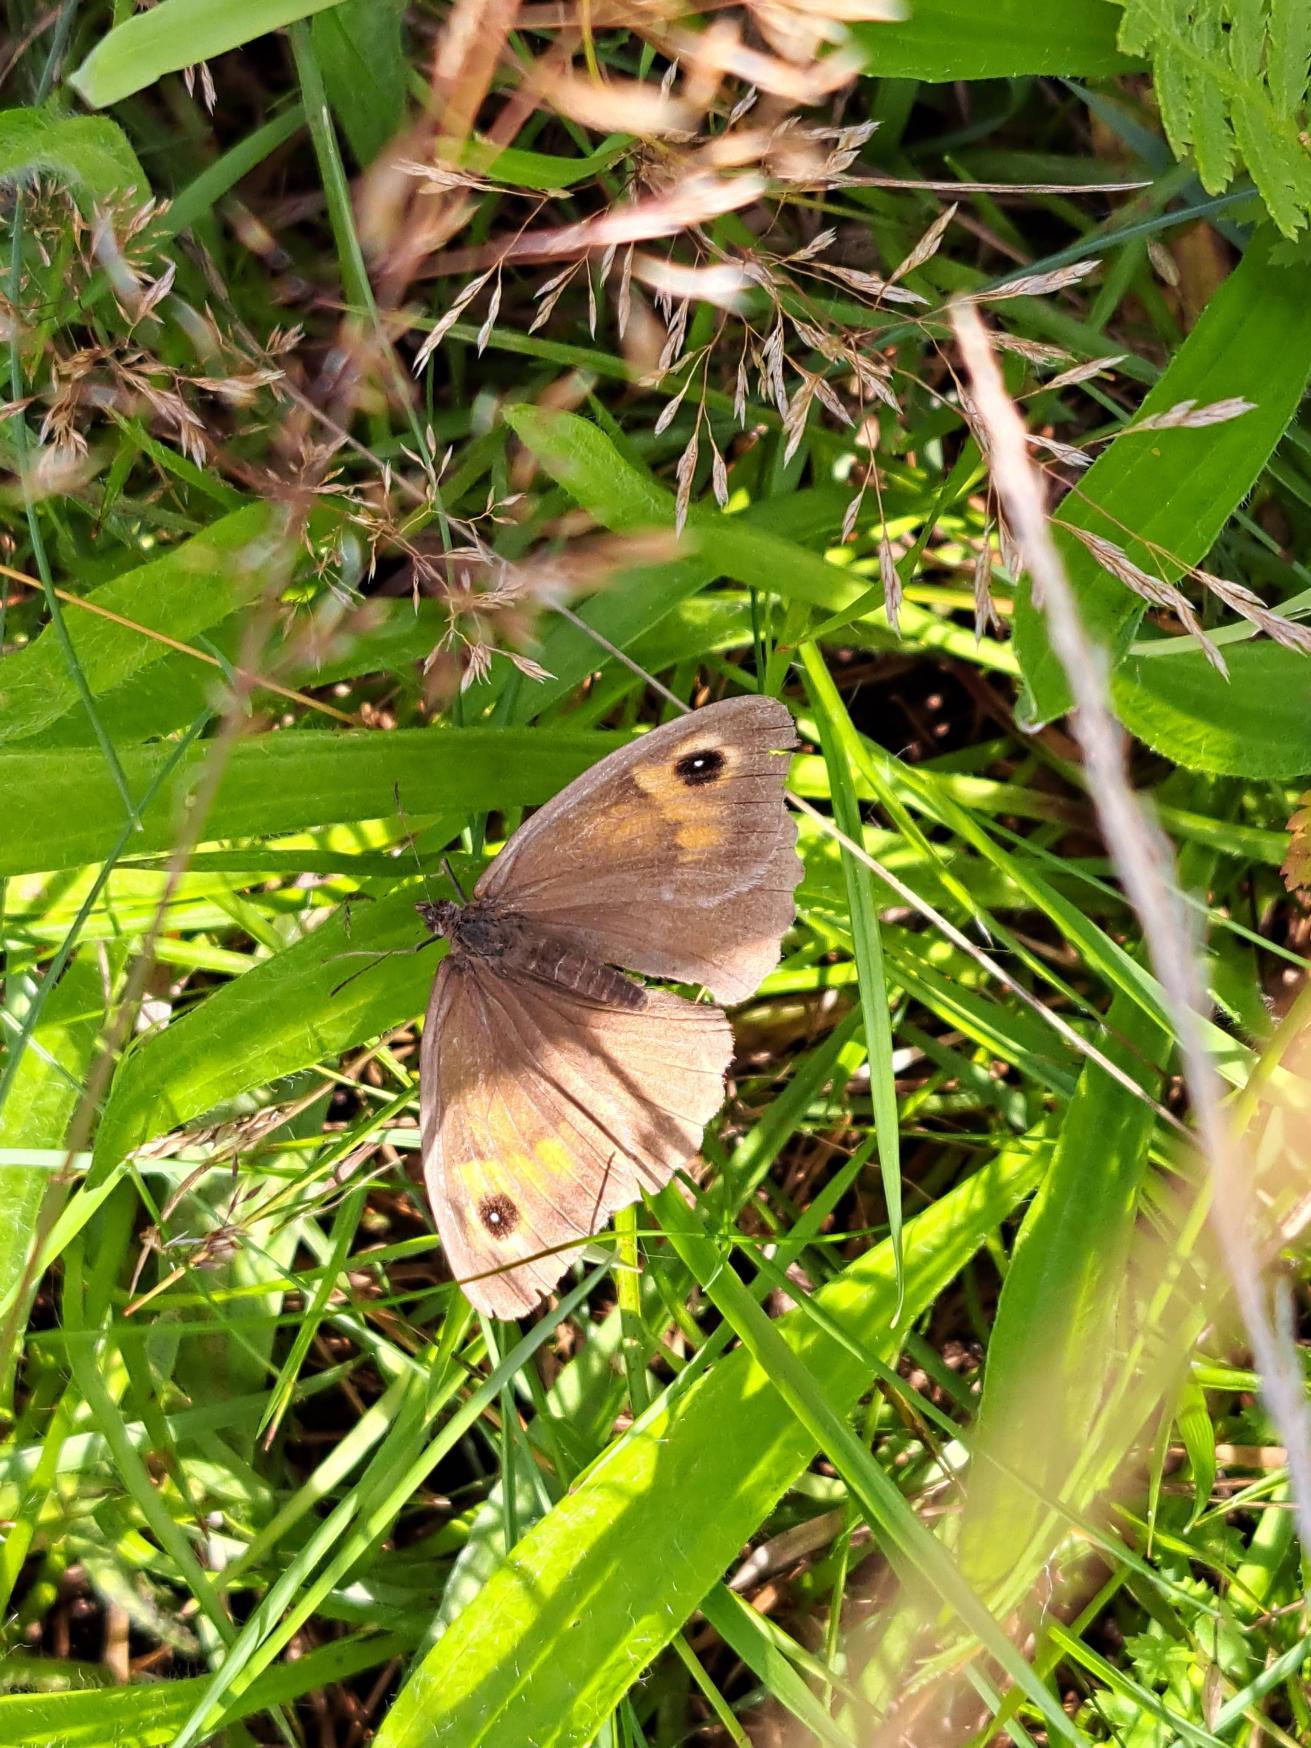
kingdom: Animalia
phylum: Arthropoda
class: Insecta
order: Lepidoptera
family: Nymphalidae
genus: Maniola
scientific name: Maniola jurtina
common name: Græsrandøje
